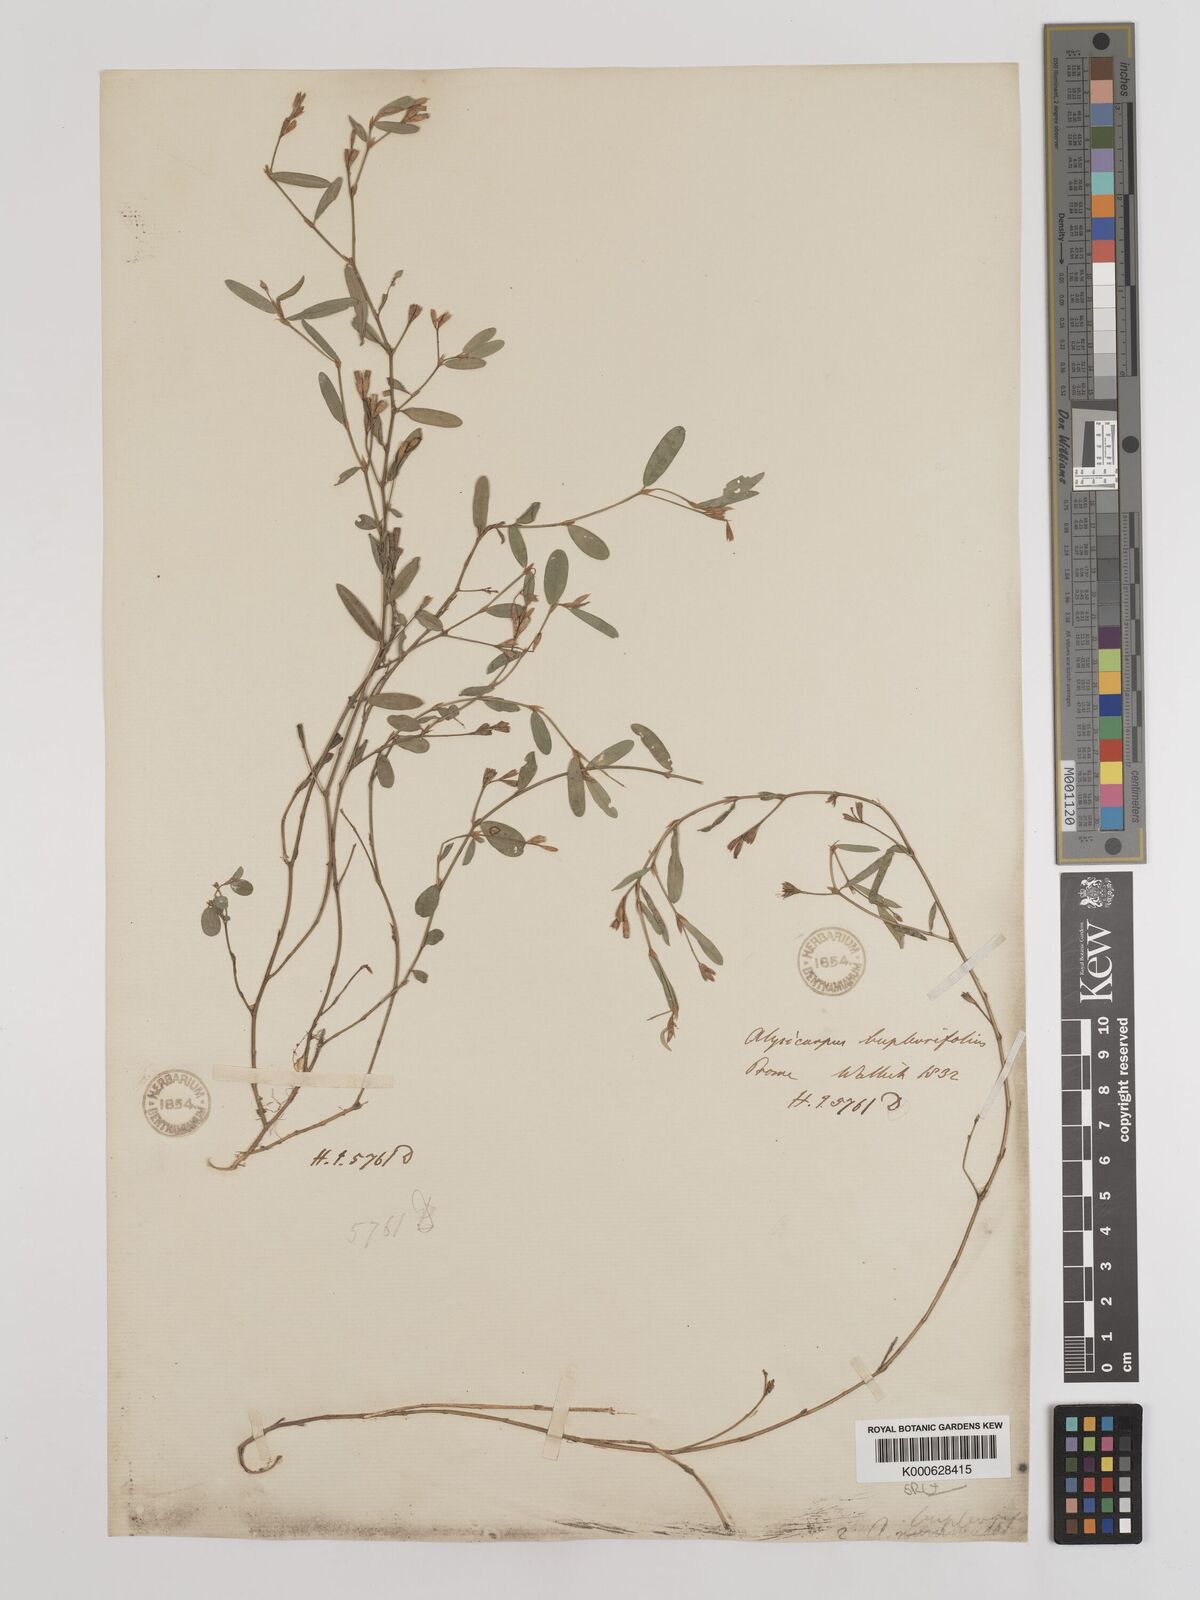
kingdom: Plantae
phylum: Tracheophyta
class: Magnoliopsida
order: Fabales
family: Fabaceae
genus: Alysicarpus
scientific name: Alysicarpus bupleurifolius
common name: Sweet alys
